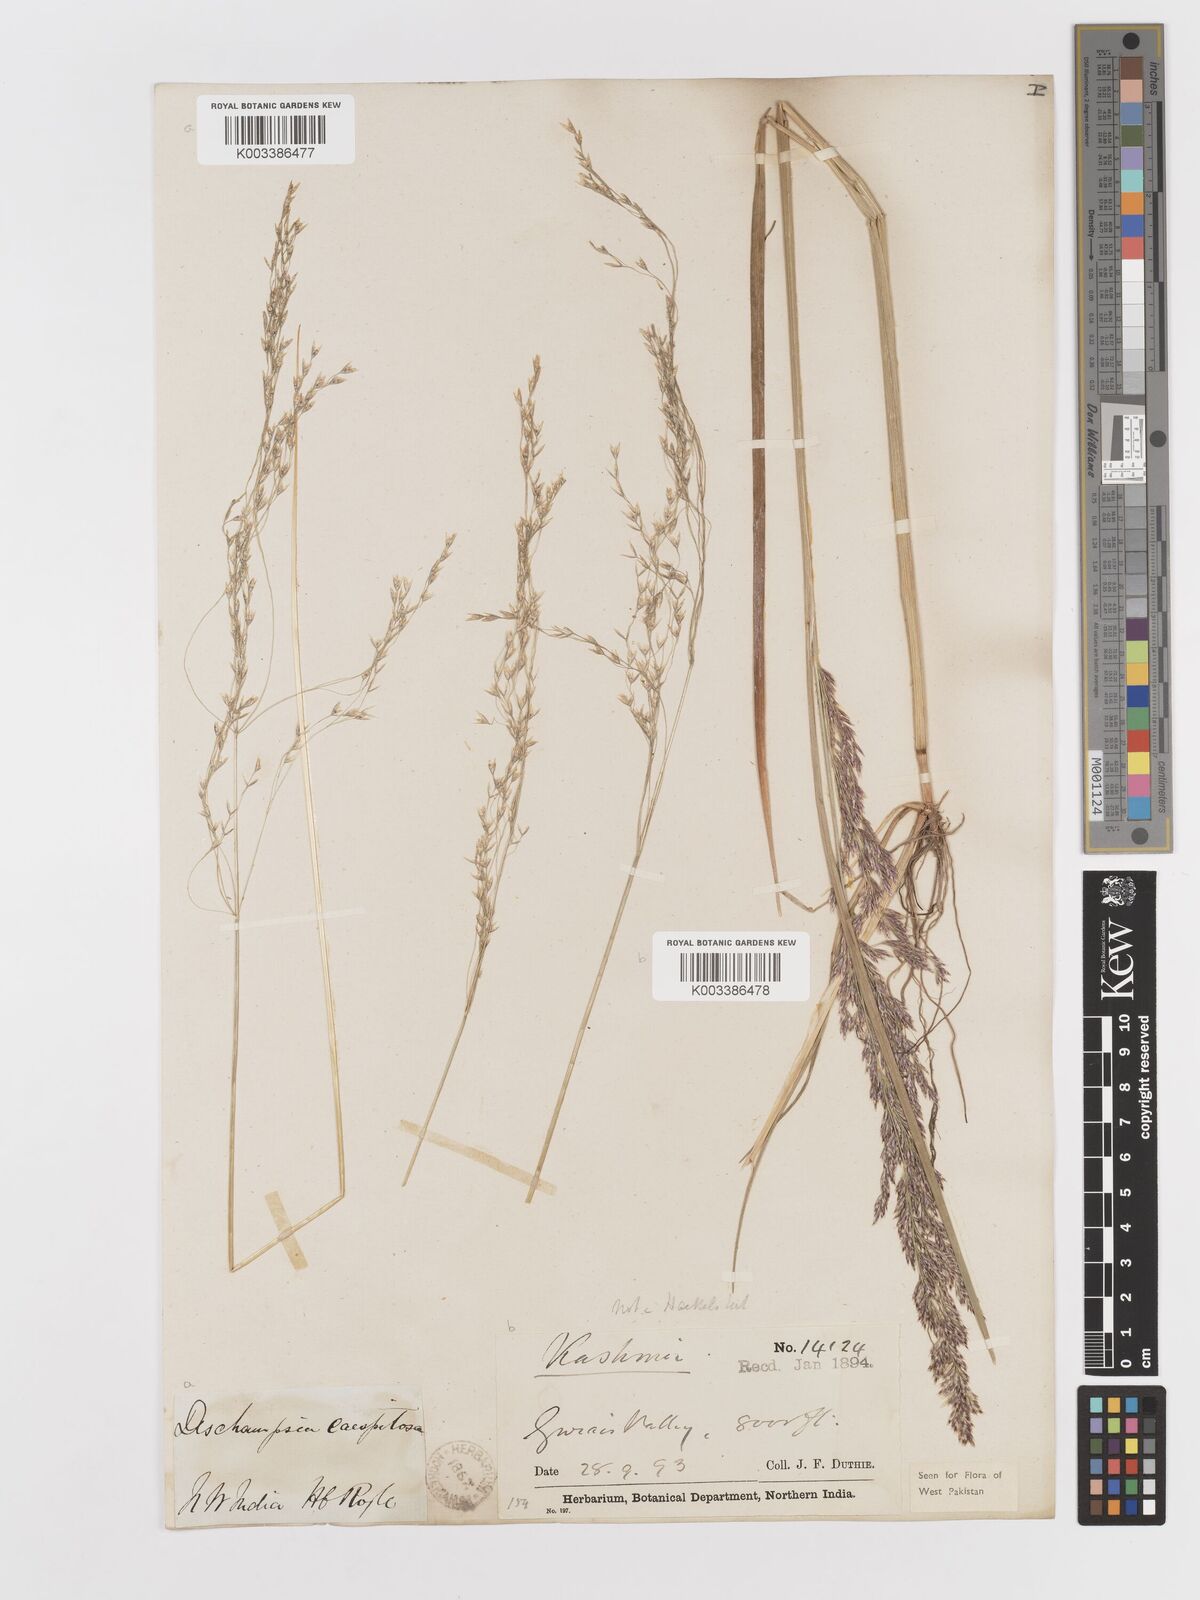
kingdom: Plantae
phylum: Tracheophyta
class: Liliopsida
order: Poales
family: Poaceae
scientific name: Poaceae
